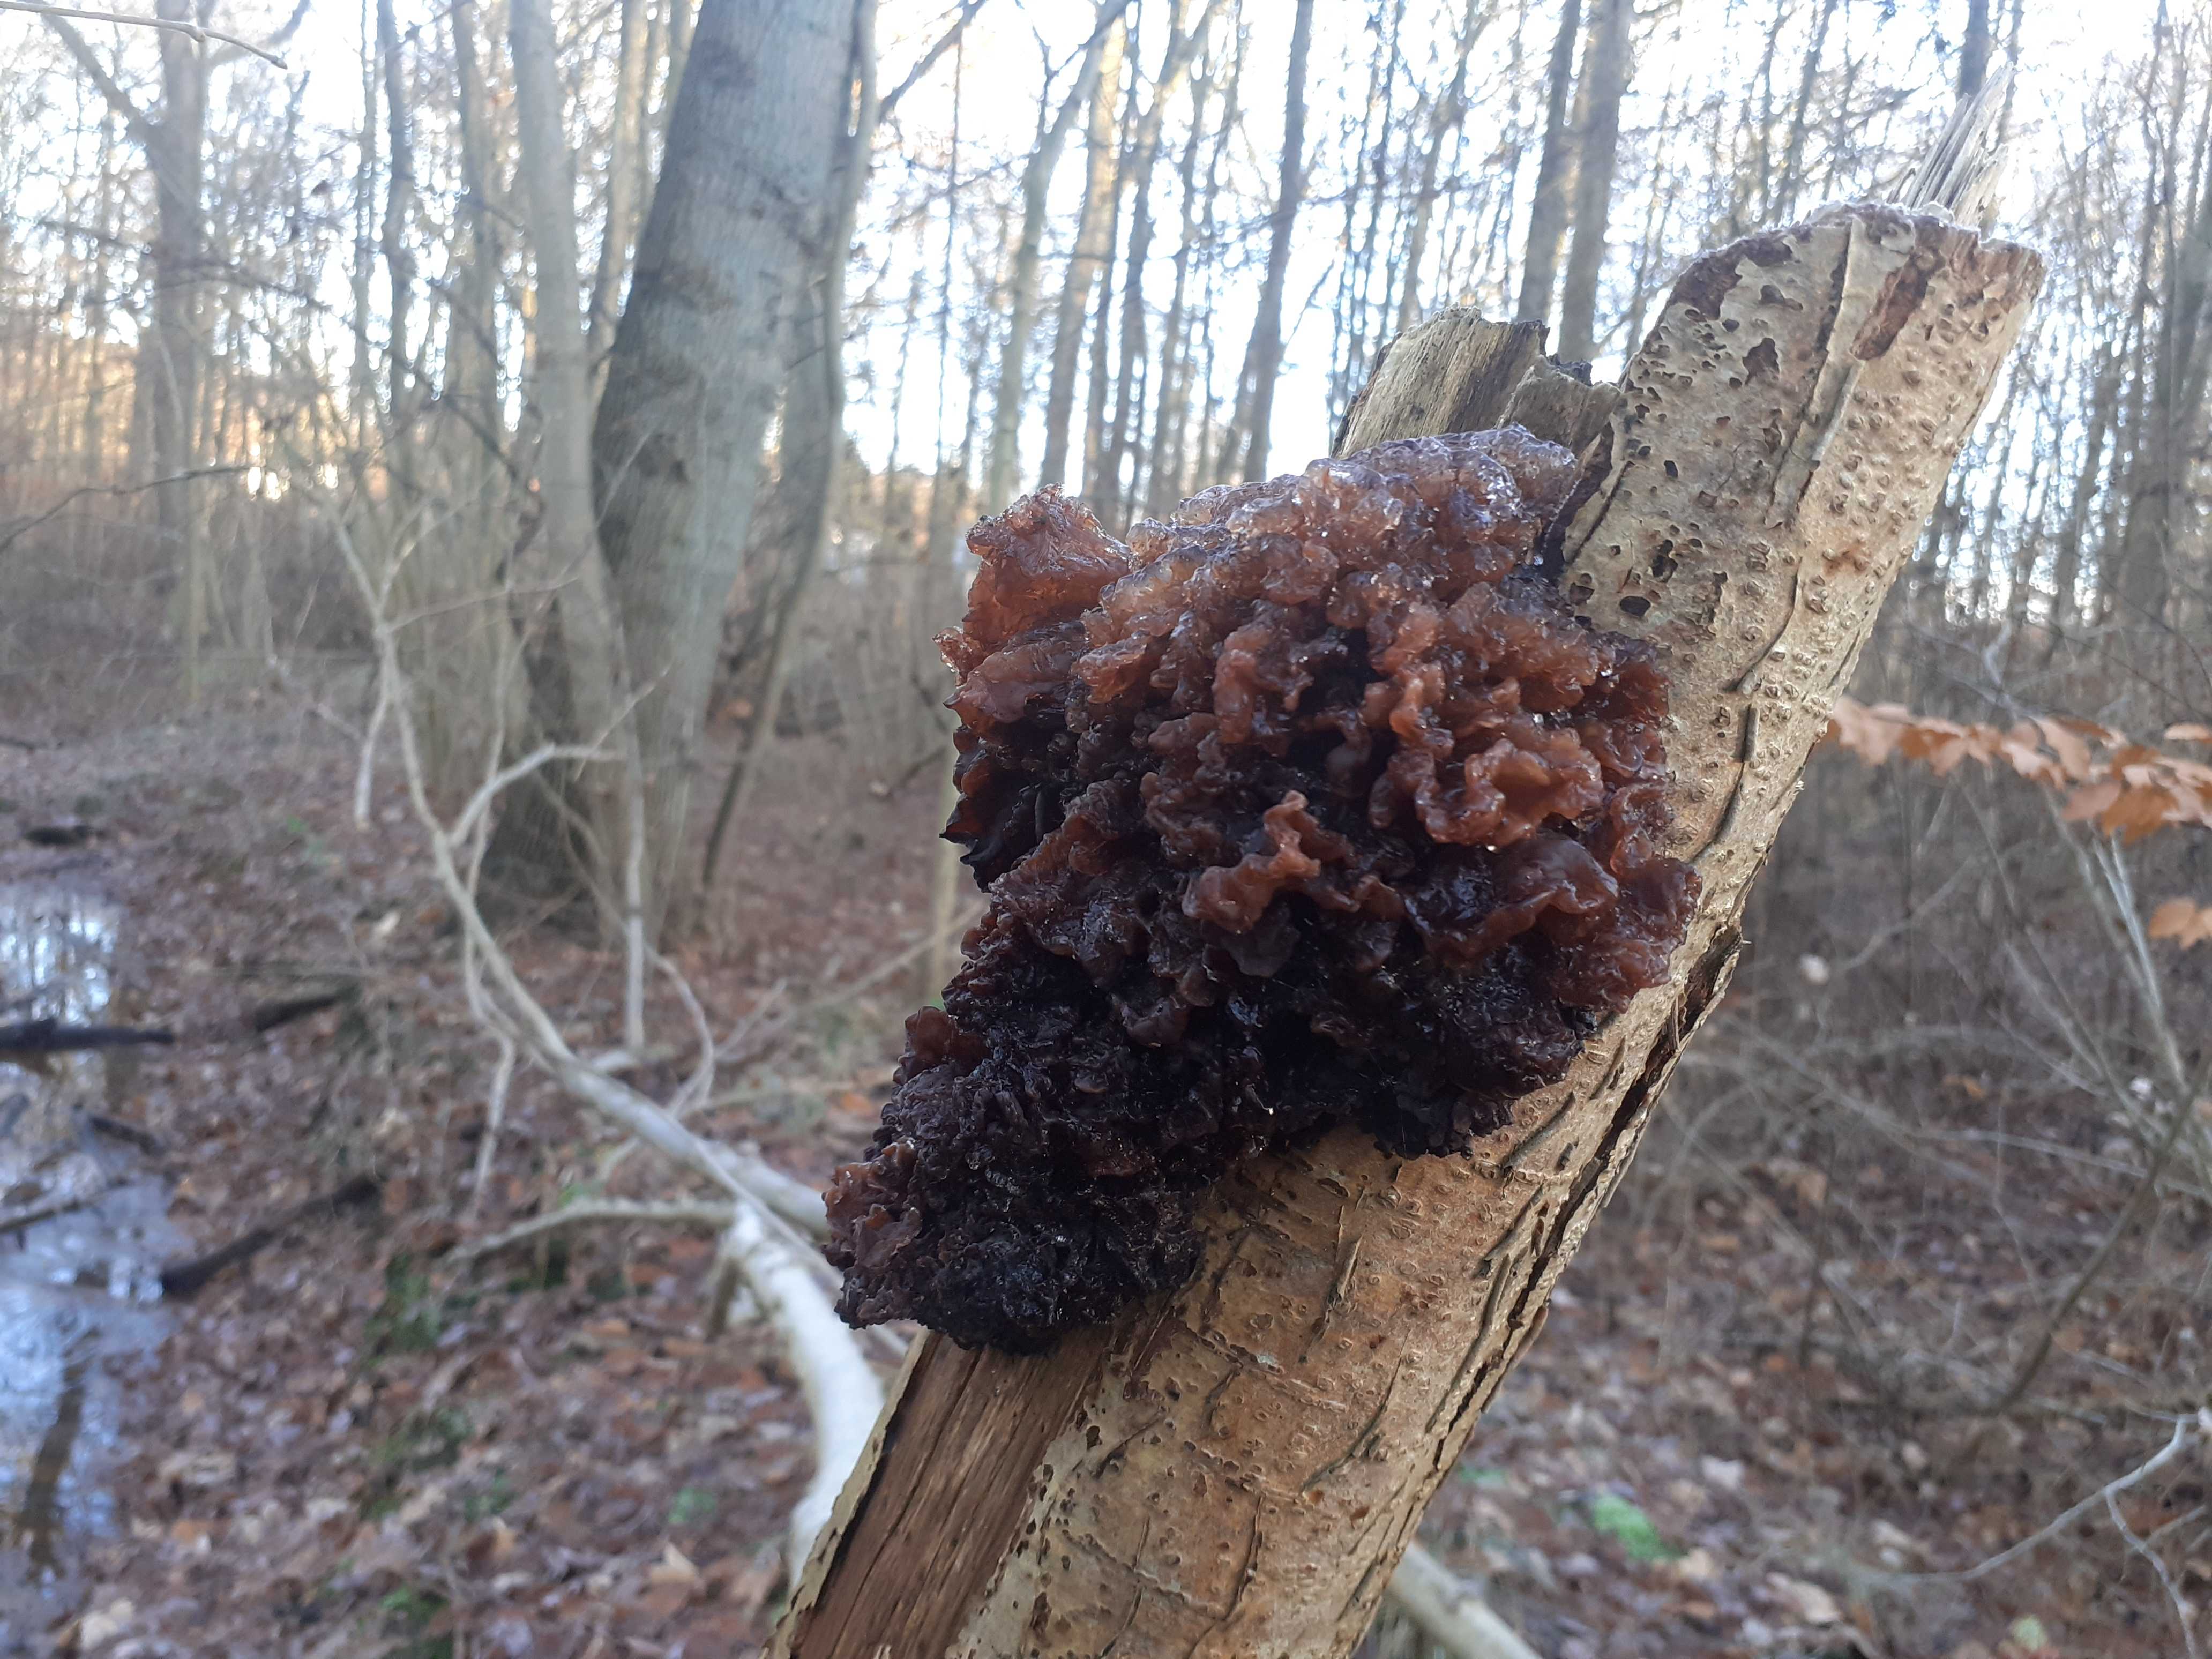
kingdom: Fungi
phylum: Basidiomycota
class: Tremellomycetes
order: Tremellales
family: Tremellaceae
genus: Phaeotremella
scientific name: Phaeotremella frondosa
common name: kæmpe-bævresvamp
